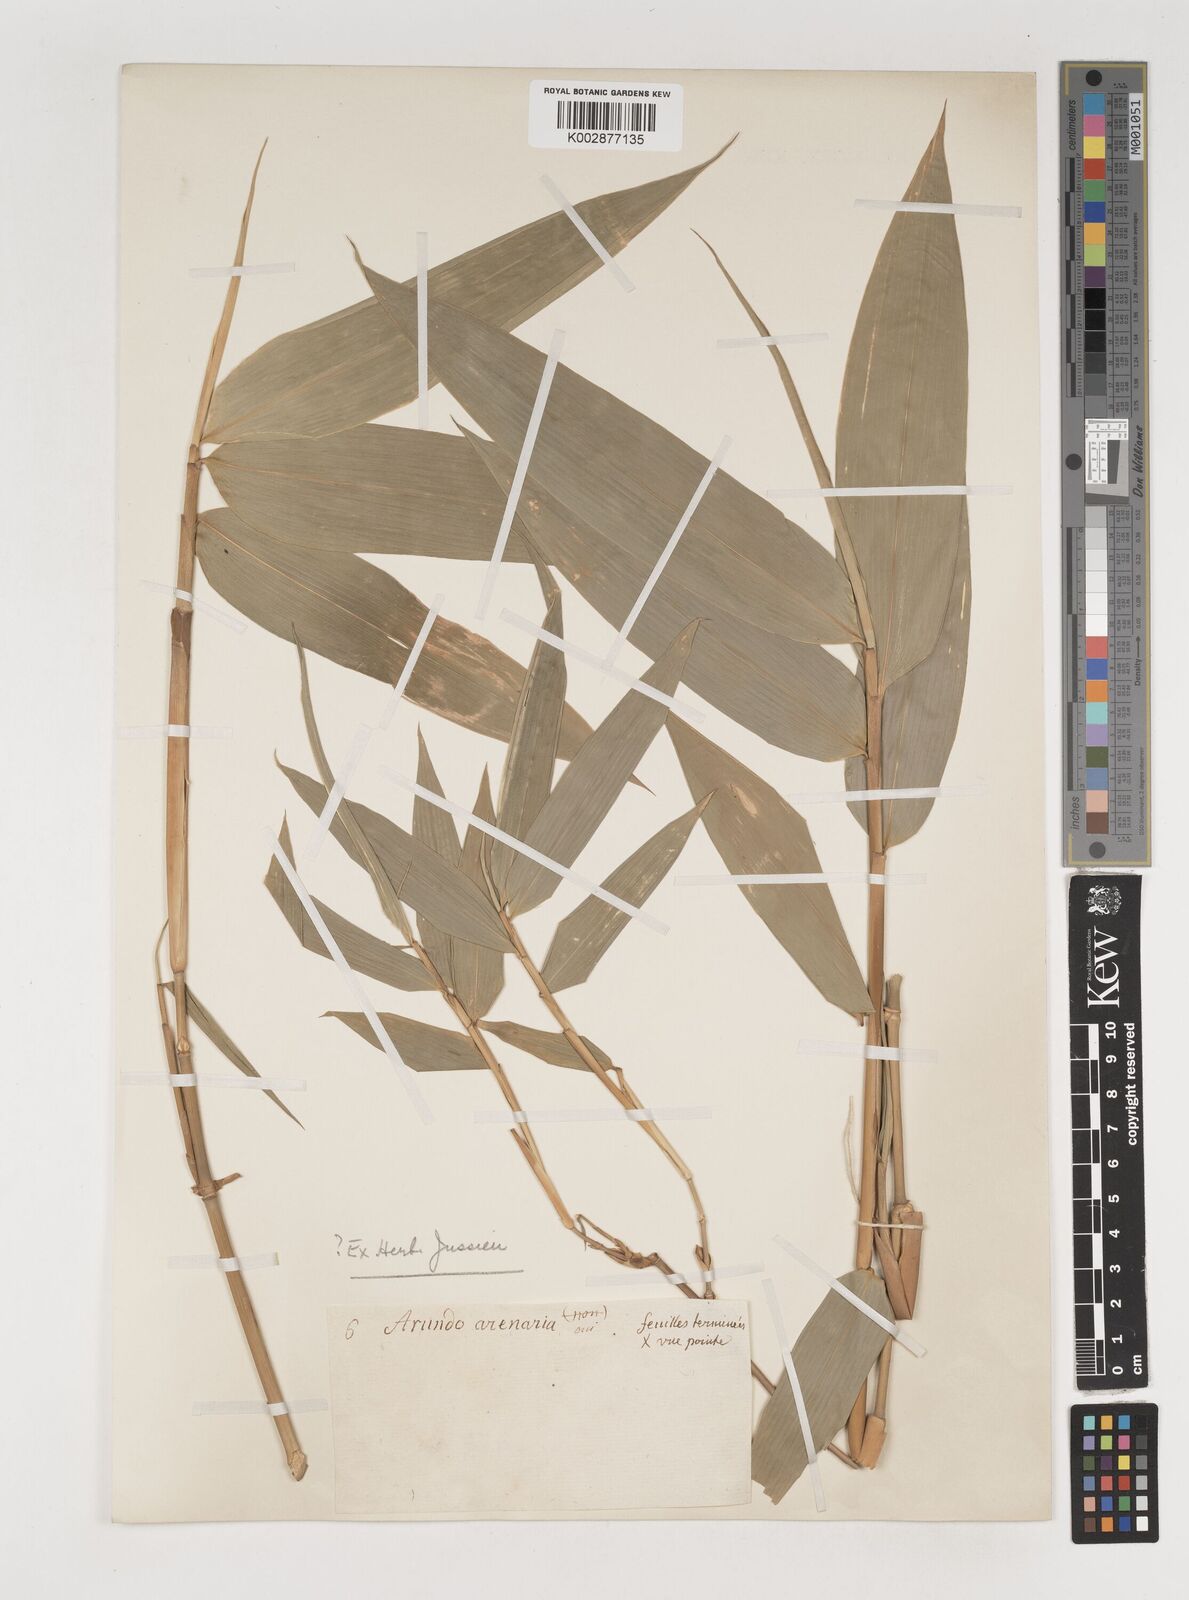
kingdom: Plantae
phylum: Tracheophyta
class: Liliopsida
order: Poales
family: Poaceae
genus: Bambusa
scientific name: Bambusa
